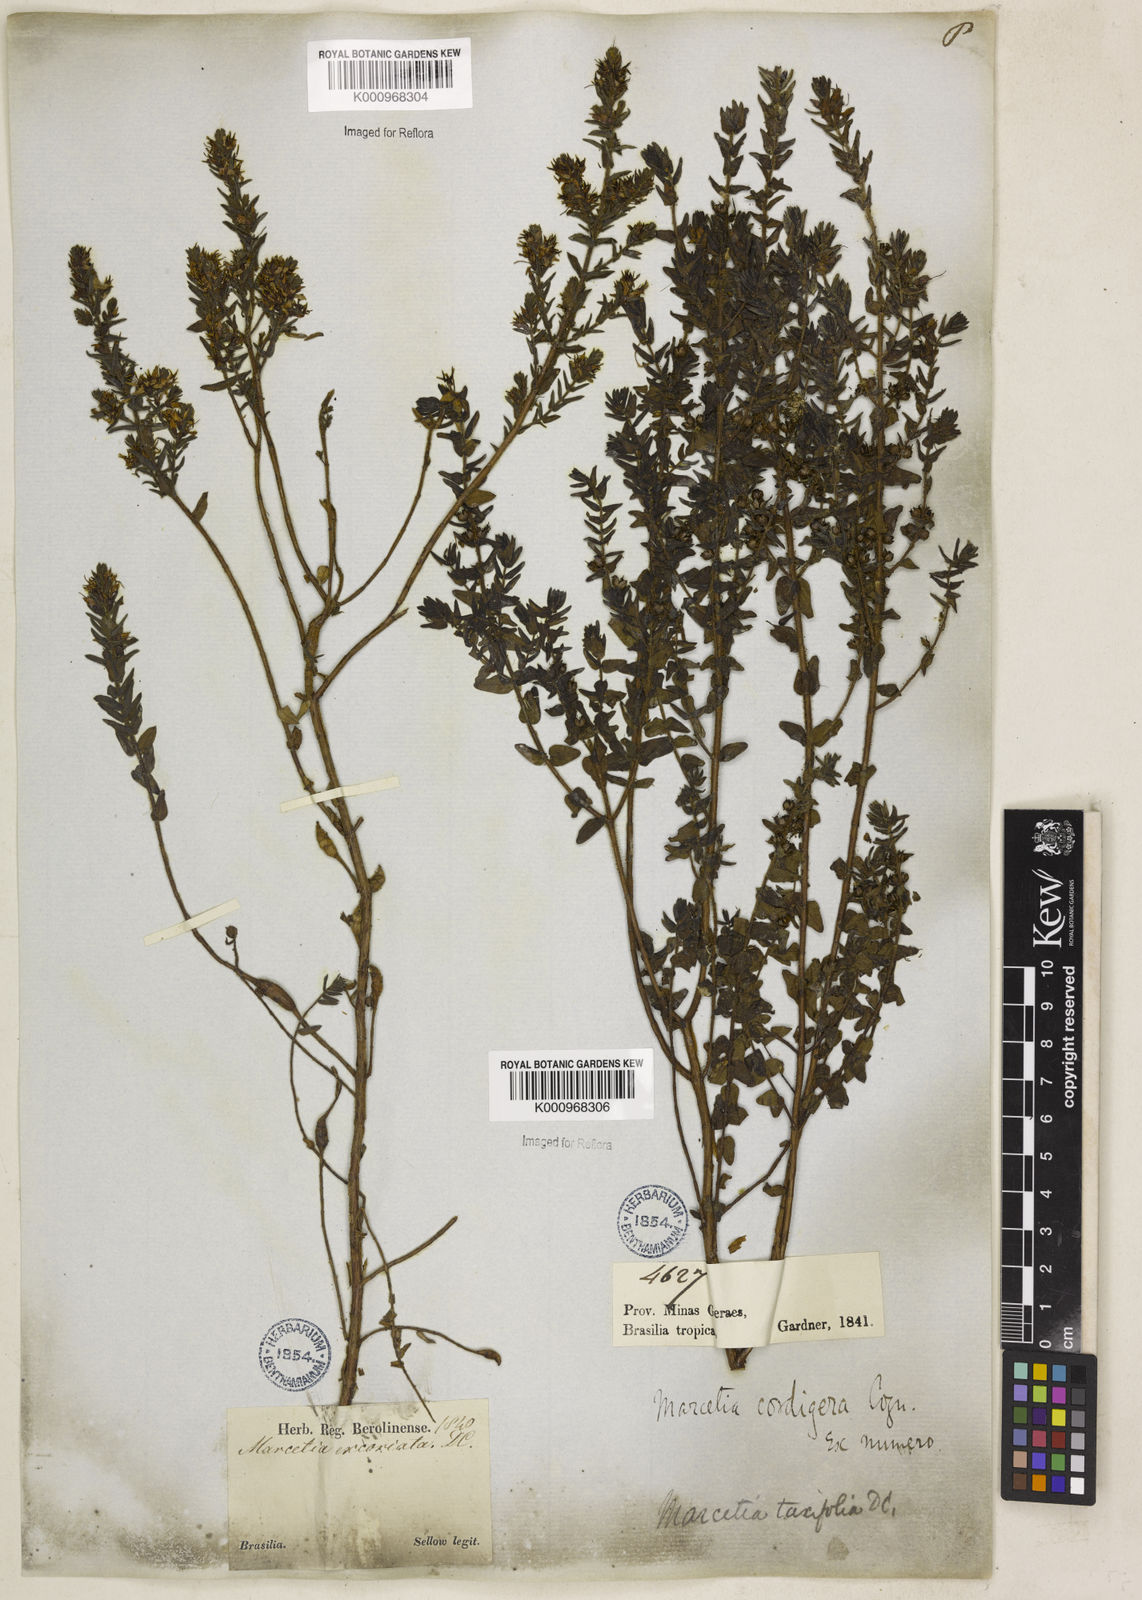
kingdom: Plantae
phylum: Tracheophyta
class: Magnoliopsida
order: Myrtales
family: Melastomataceae
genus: Marcetia
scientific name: Marcetia taxifolia
